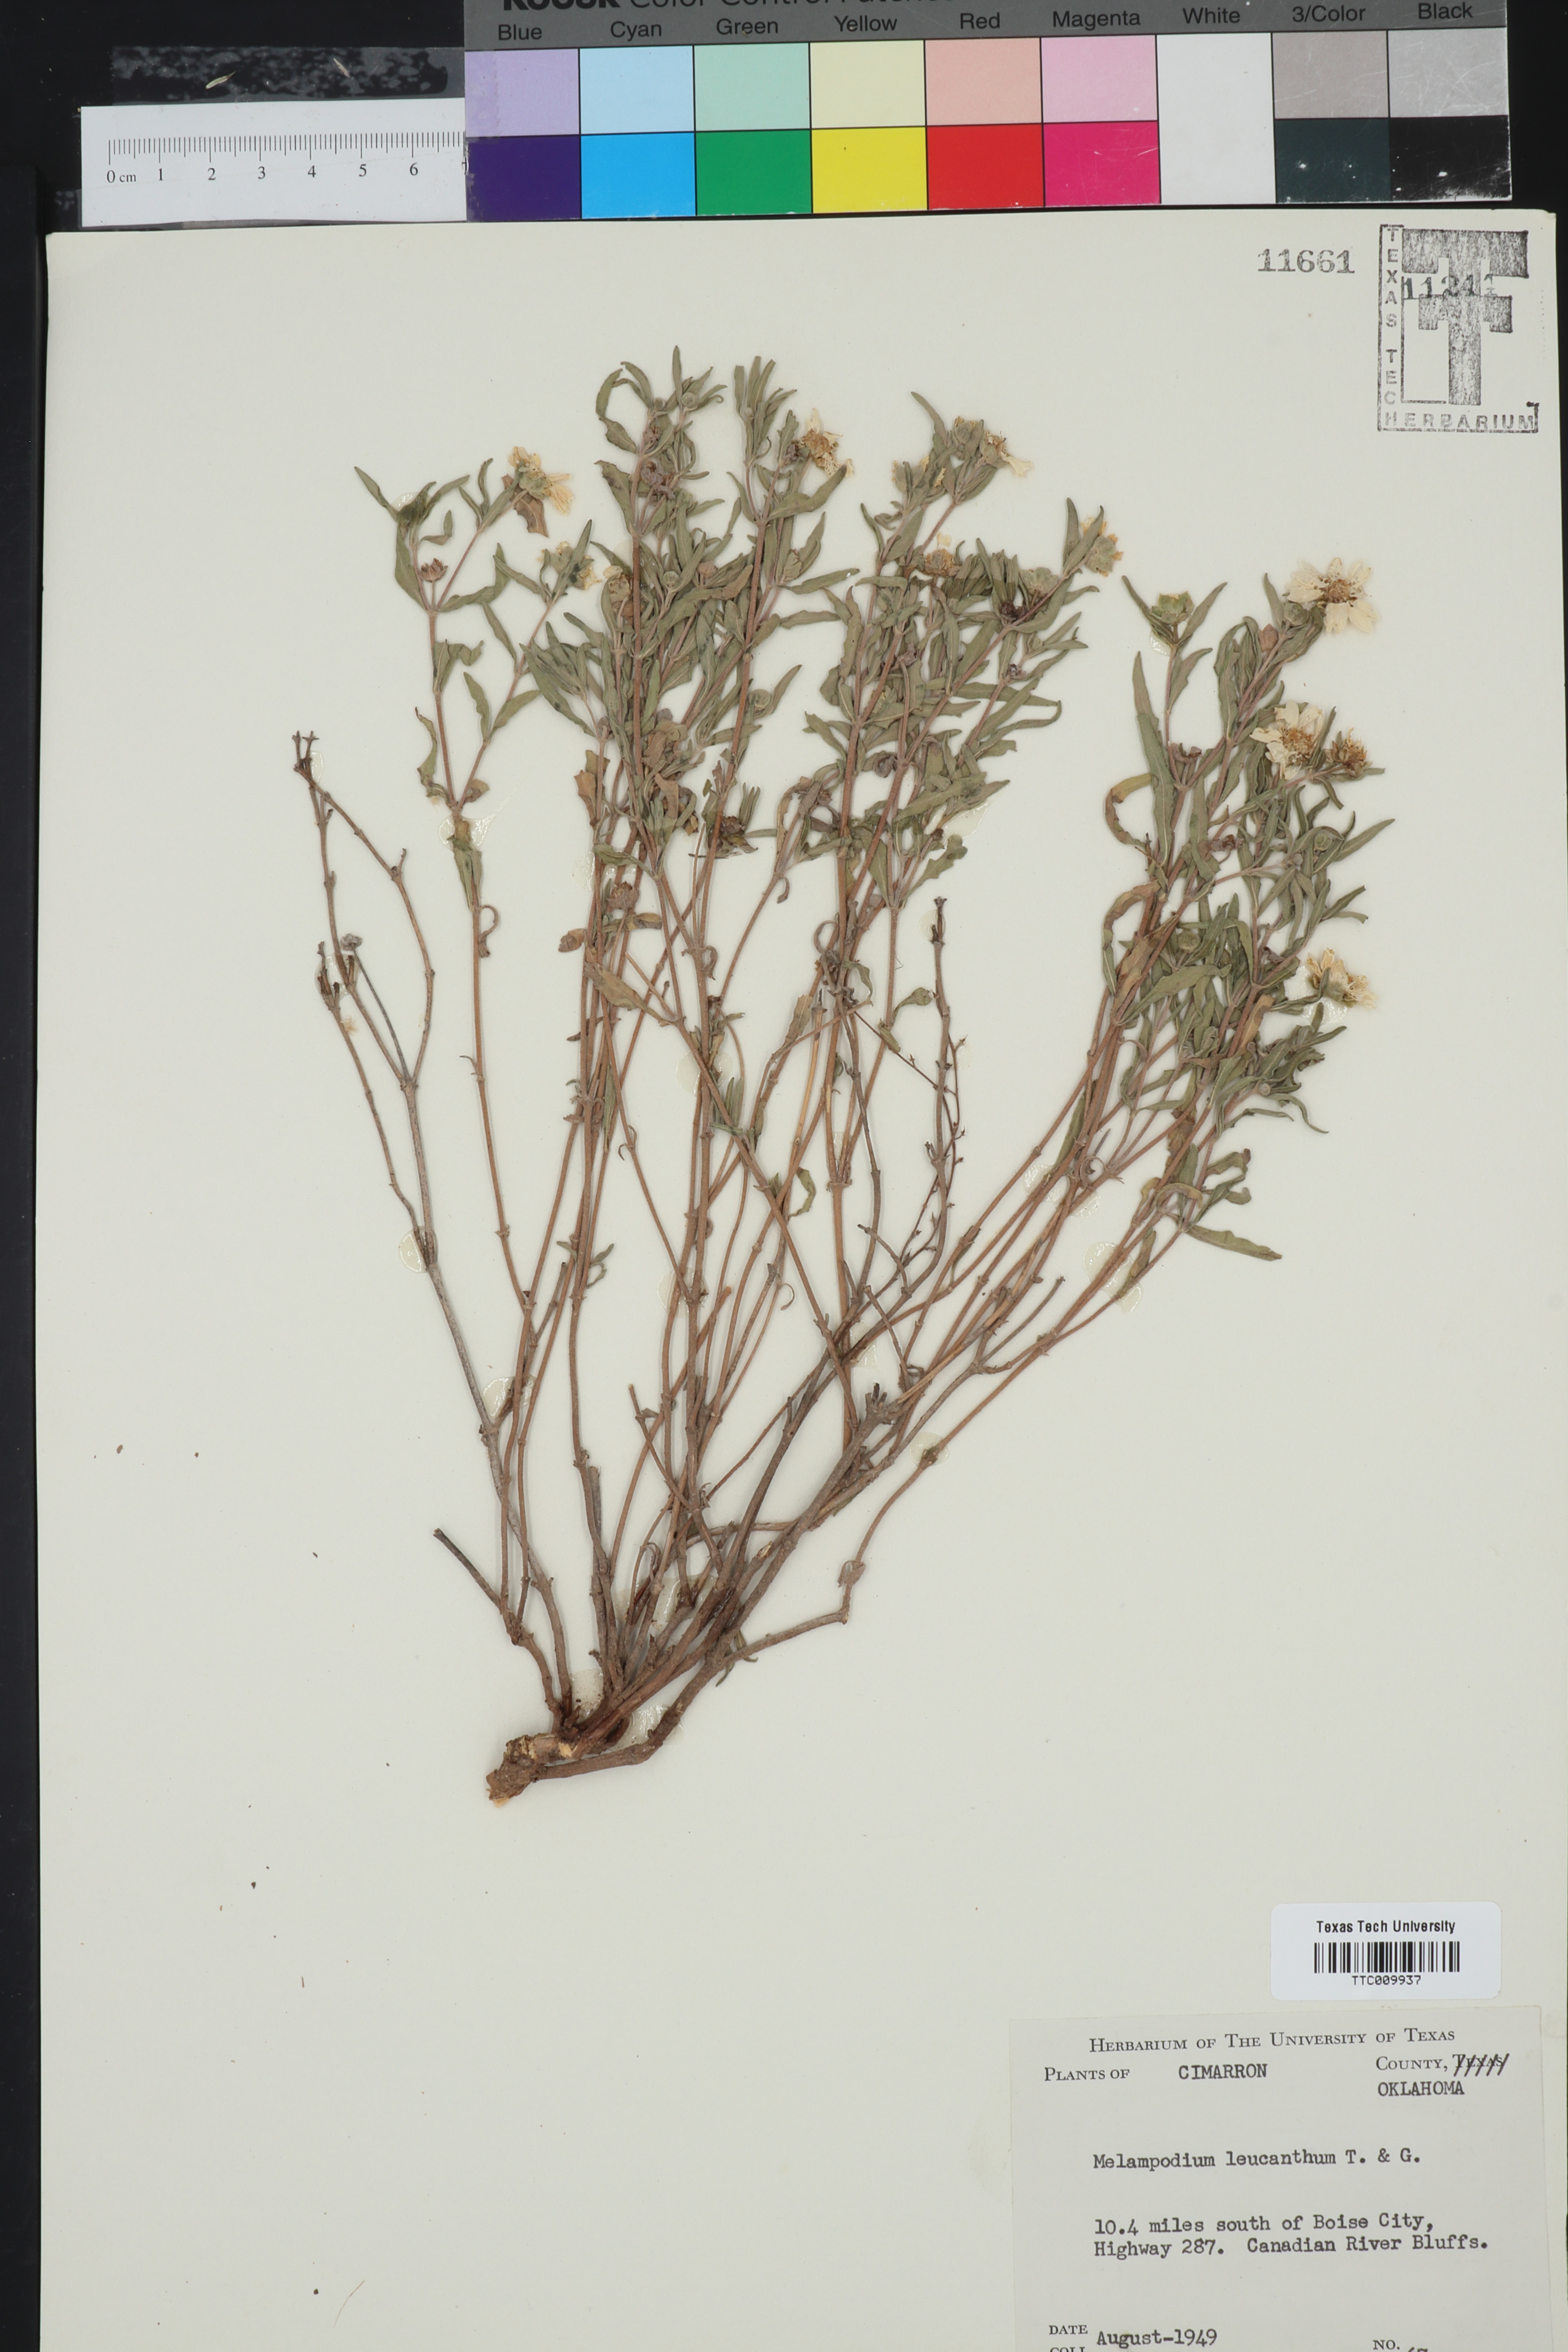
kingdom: Plantae
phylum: Tracheophyta
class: Magnoliopsida
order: Asterales
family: Asteraceae
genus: Melampodium
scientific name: Melampodium leucanthum
